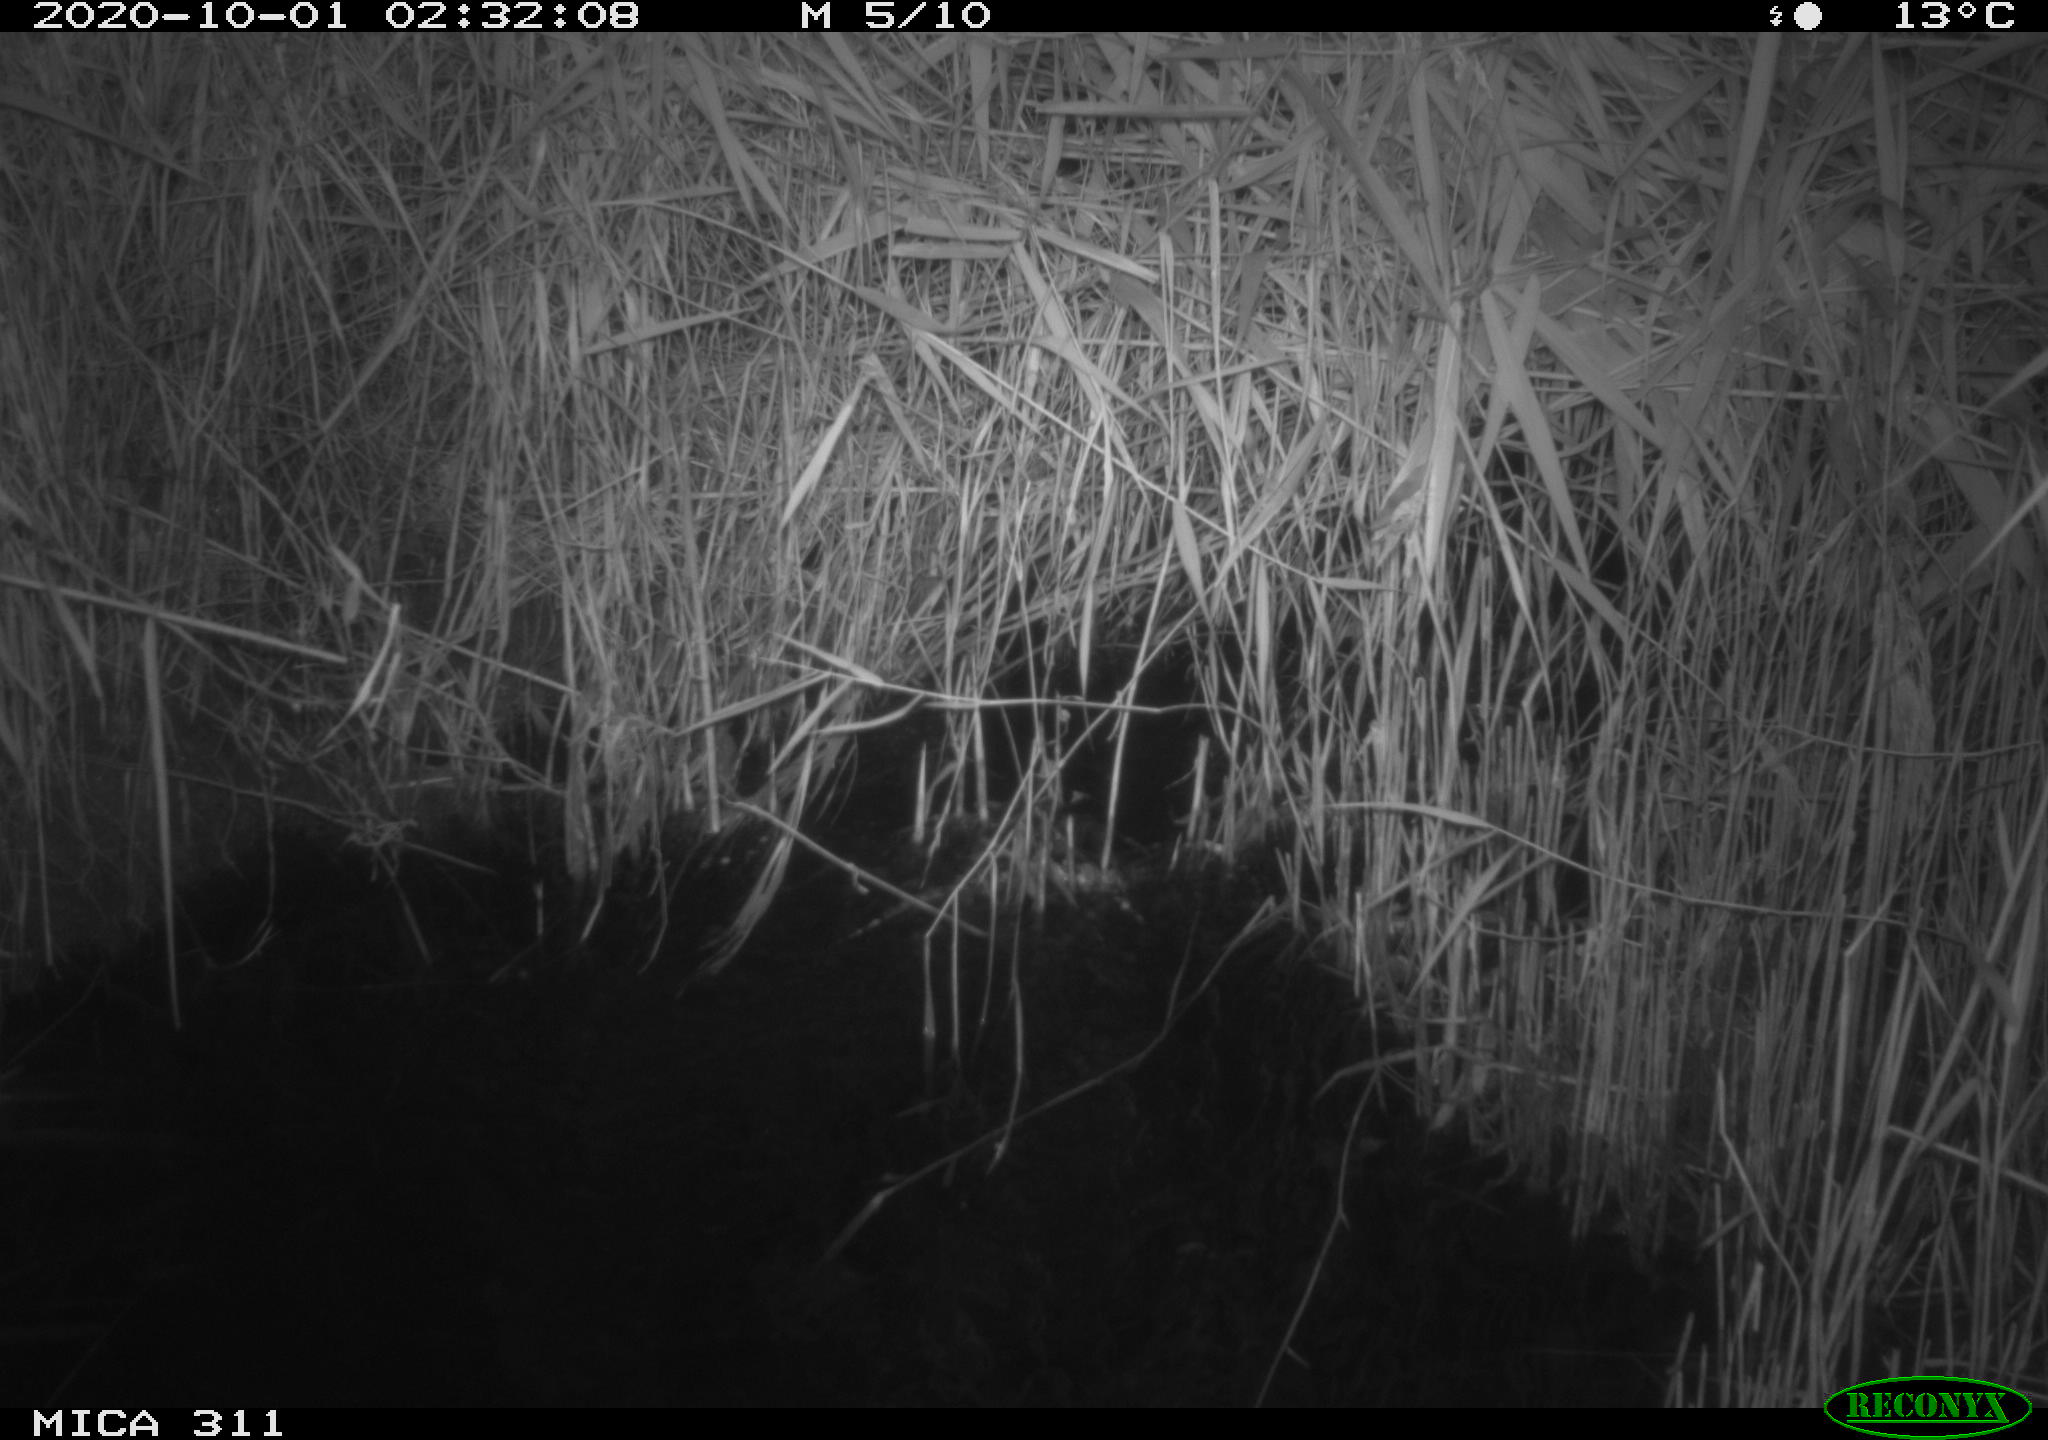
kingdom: Animalia
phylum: Chordata
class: Mammalia
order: Rodentia
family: Cricetidae
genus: Ondatra
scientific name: Ondatra zibethicus
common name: Muskrat
